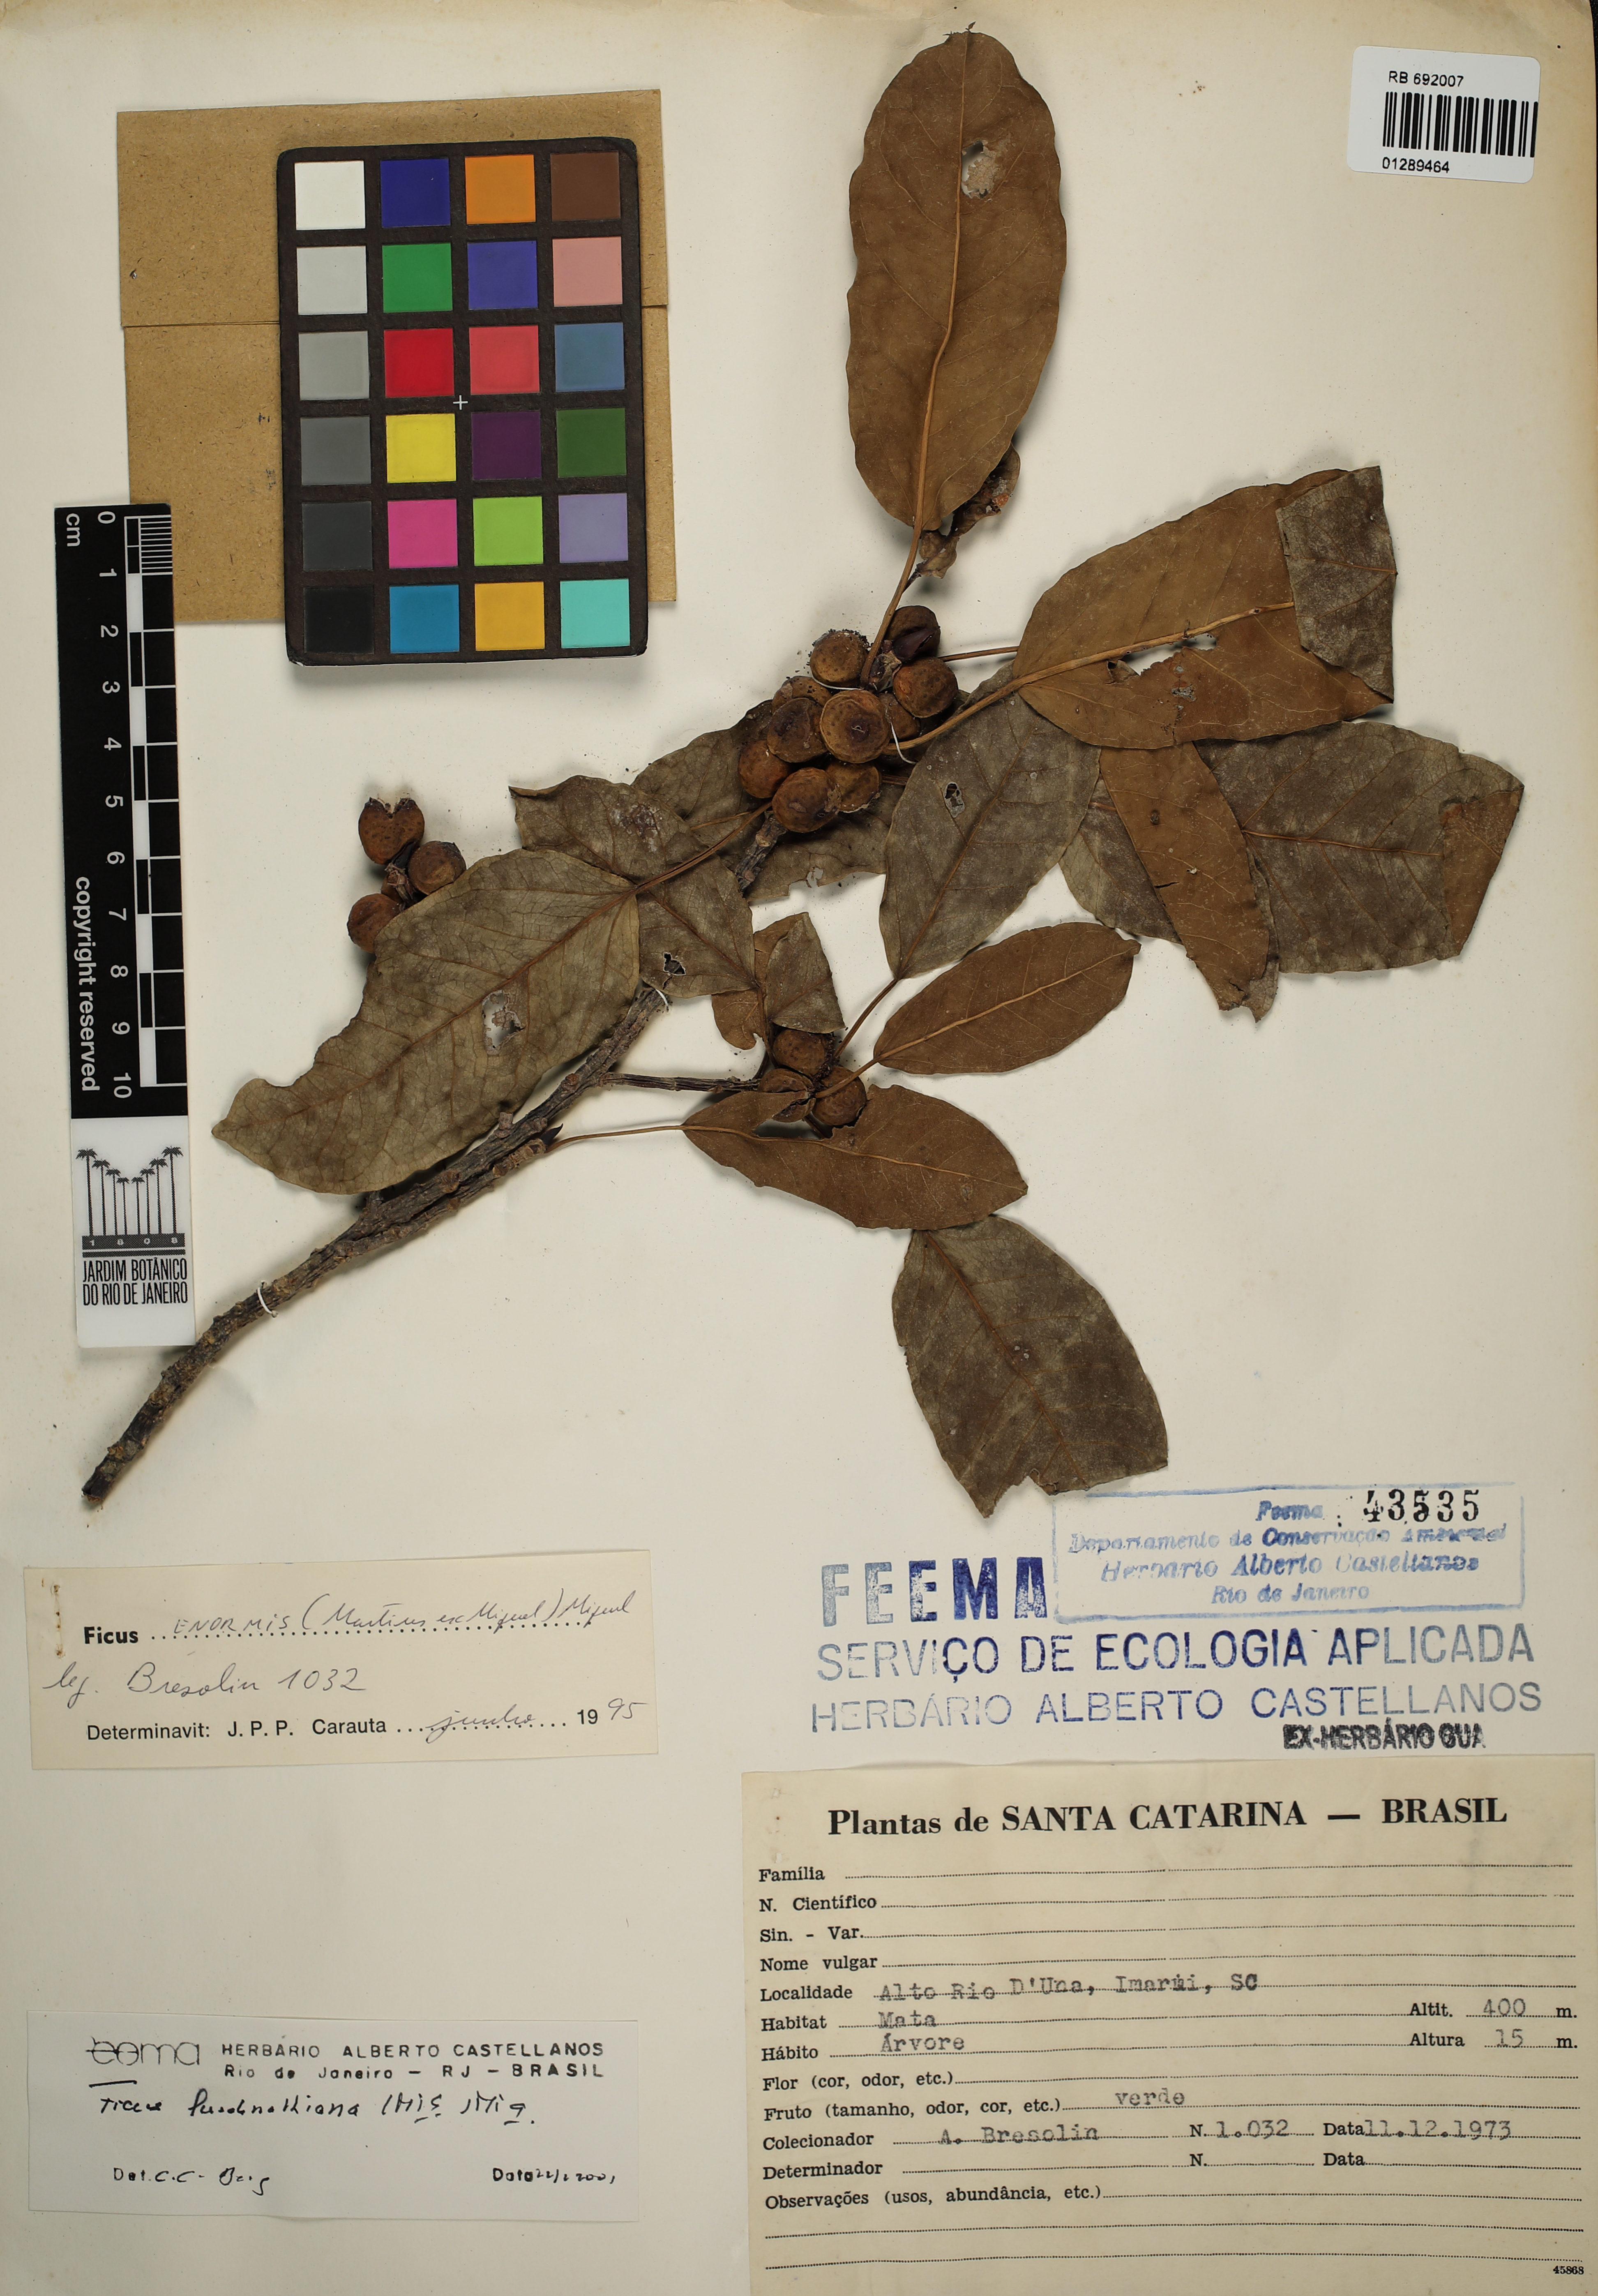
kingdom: Plantae
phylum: Tracheophyta
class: Magnoliopsida
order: Rosales
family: Moraceae
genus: Ficus
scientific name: Ficus luschnathiana
